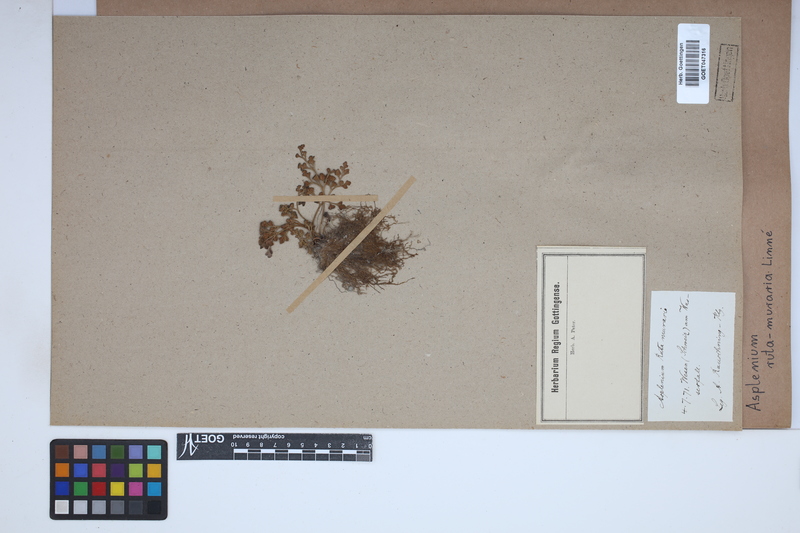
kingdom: Plantae
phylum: Tracheophyta
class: Polypodiopsida
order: Polypodiales
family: Aspleniaceae
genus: Asplenium
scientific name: Asplenium ruta-muraria
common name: Wall-rue
